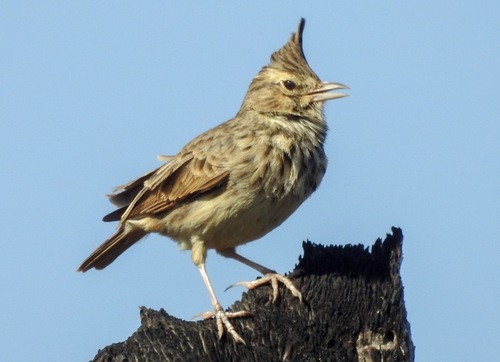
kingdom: Animalia
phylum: Chordata
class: Aves
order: Passeriformes
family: Alaudidae
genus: Galerida
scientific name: Galerida theklae
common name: Thekla lark
